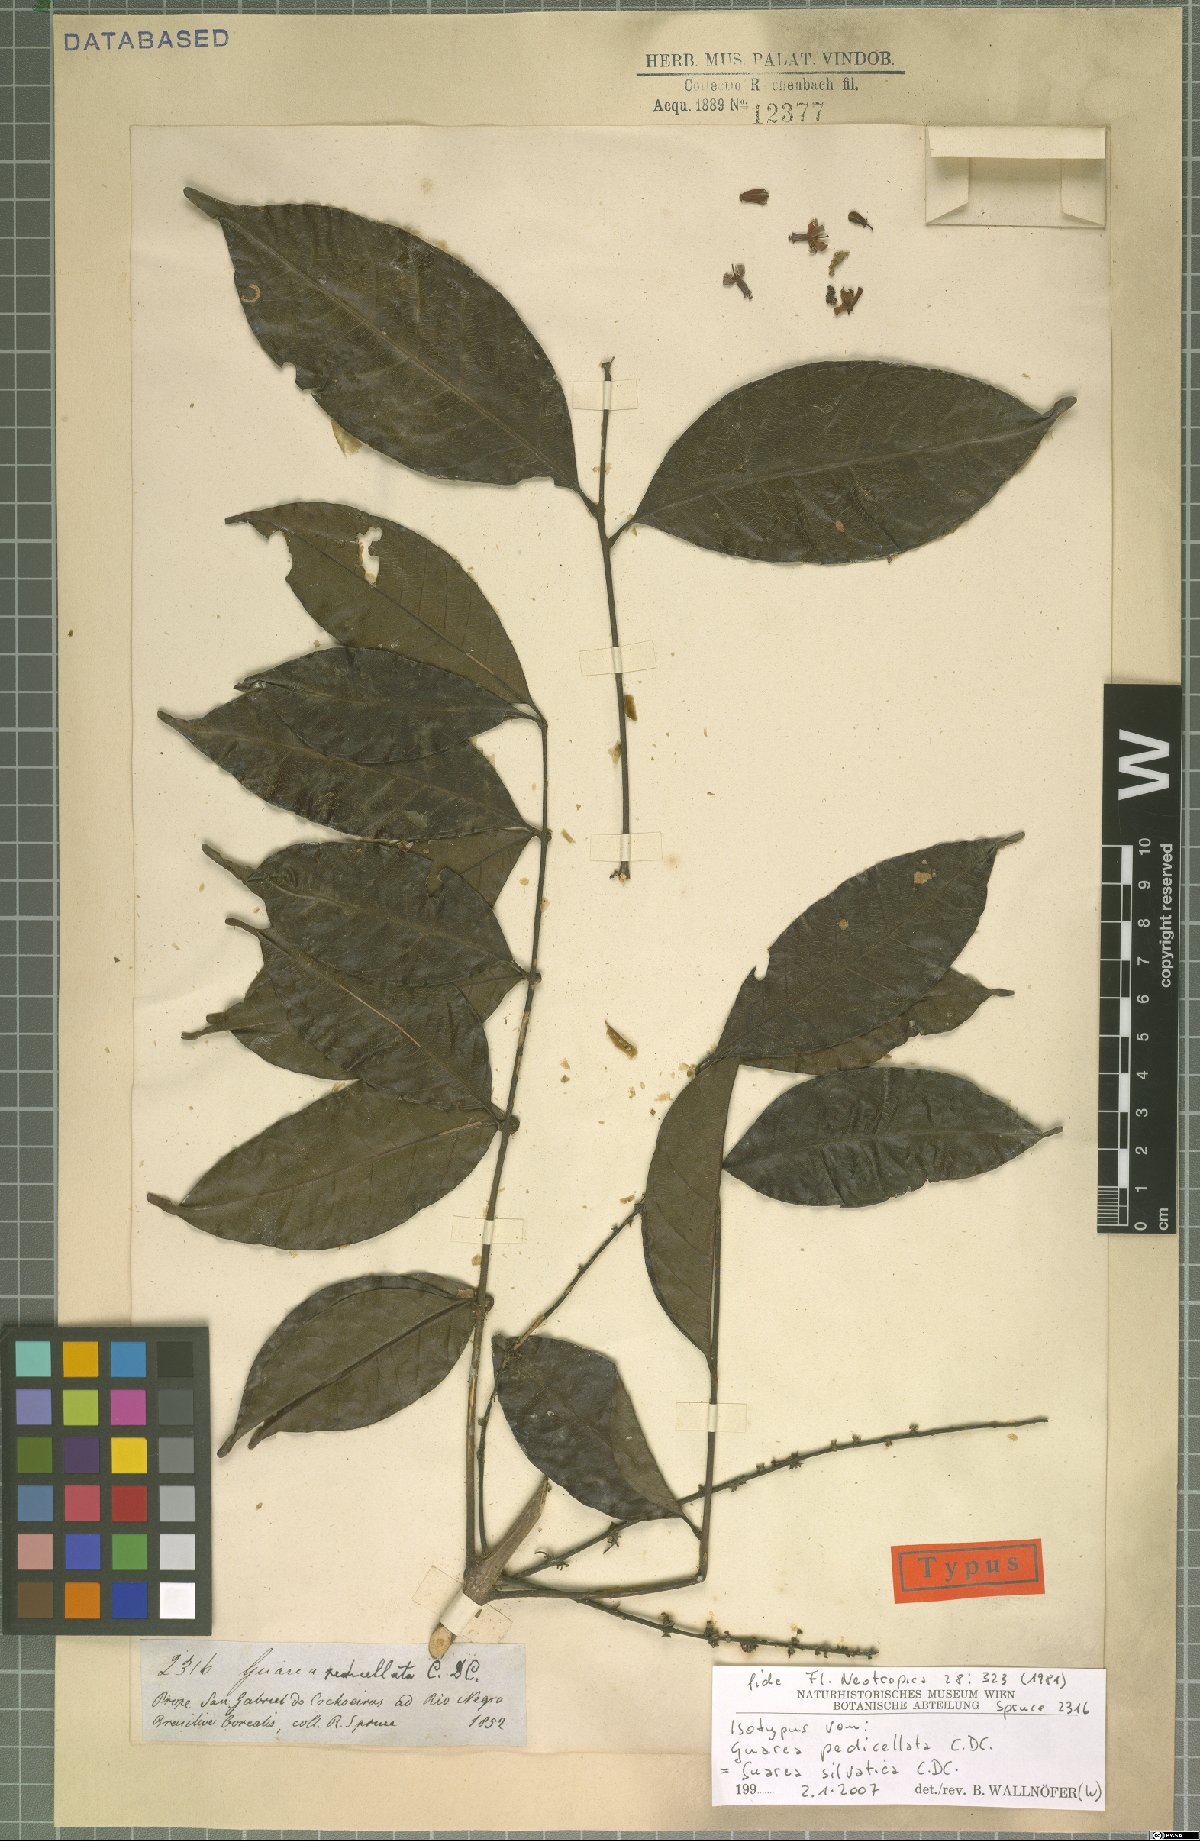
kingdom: Plantae
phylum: Tracheophyta
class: Magnoliopsida
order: Sapindales
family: Meliaceae
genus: Guarea
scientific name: Guarea silvatica
